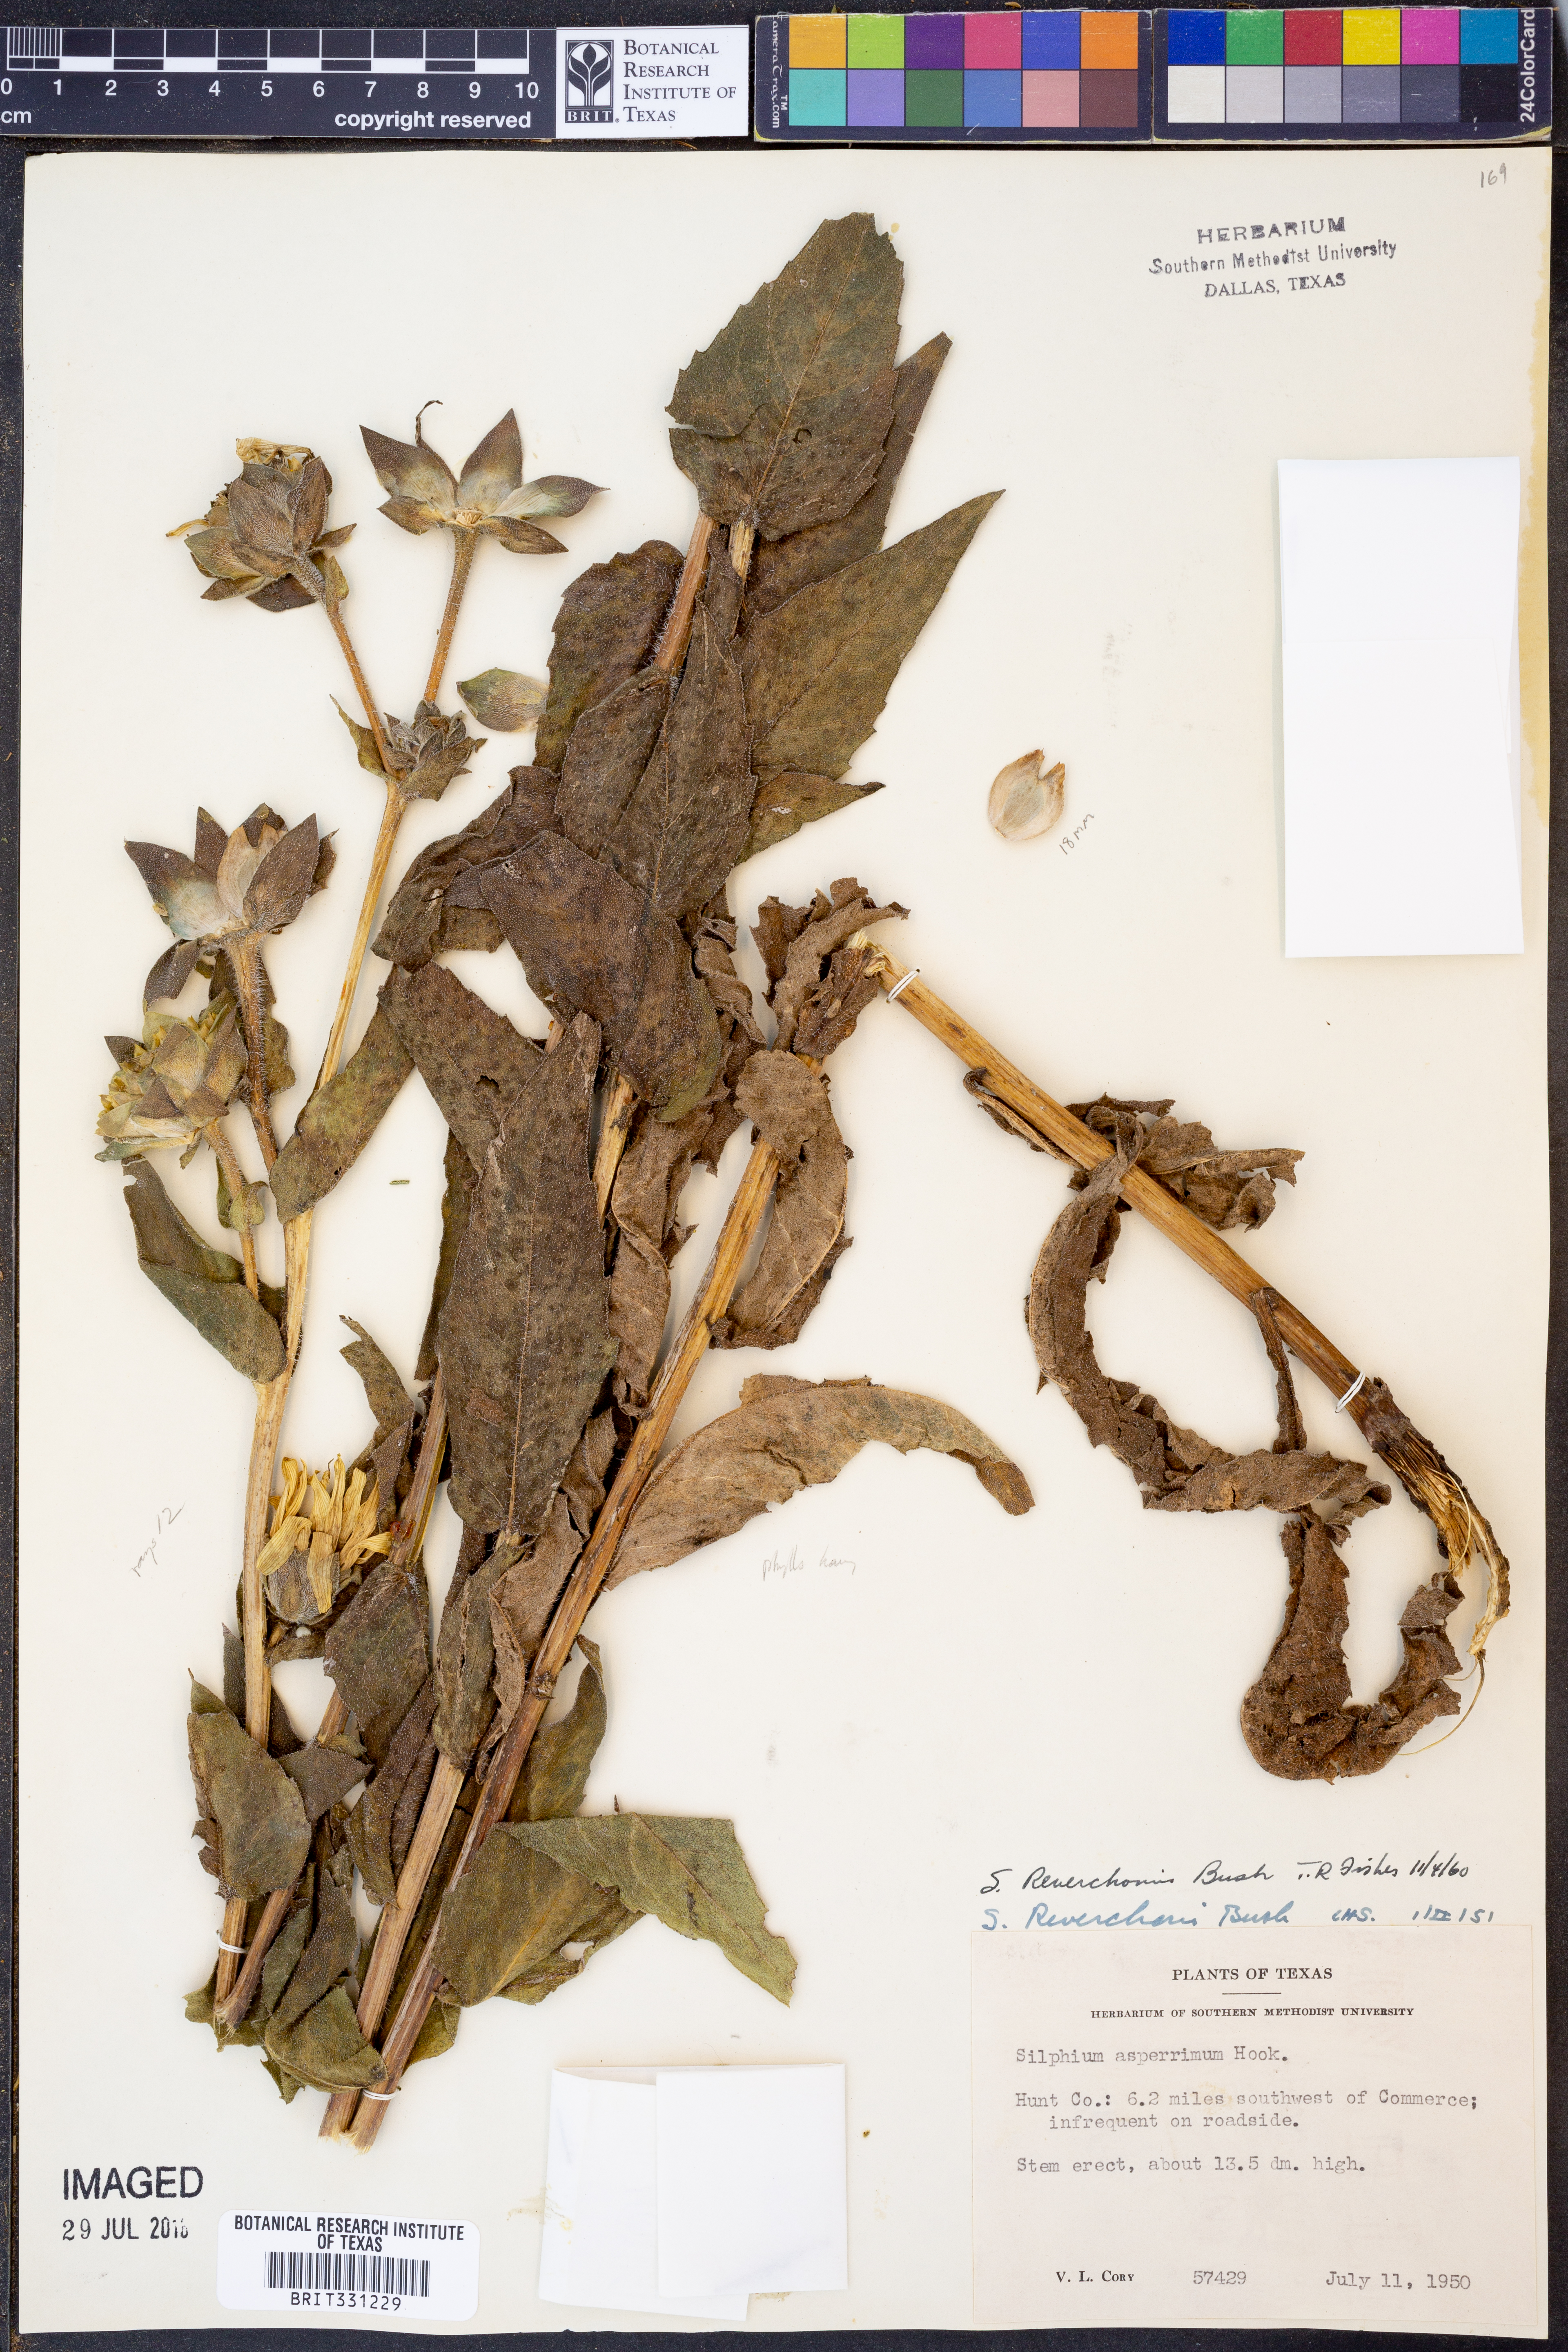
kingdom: Plantae
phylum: Tracheophyta
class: Magnoliopsida
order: Asterales
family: Asteraceae
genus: Silphium
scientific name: Silphium radula
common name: Roughleaf rosinweed
